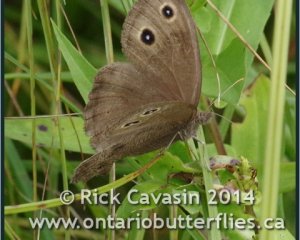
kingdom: Animalia
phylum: Arthropoda
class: Insecta
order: Lepidoptera
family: Nymphalidae
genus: Cercyonis
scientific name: Cercyonis pegala
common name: Common Wood-Nymph
